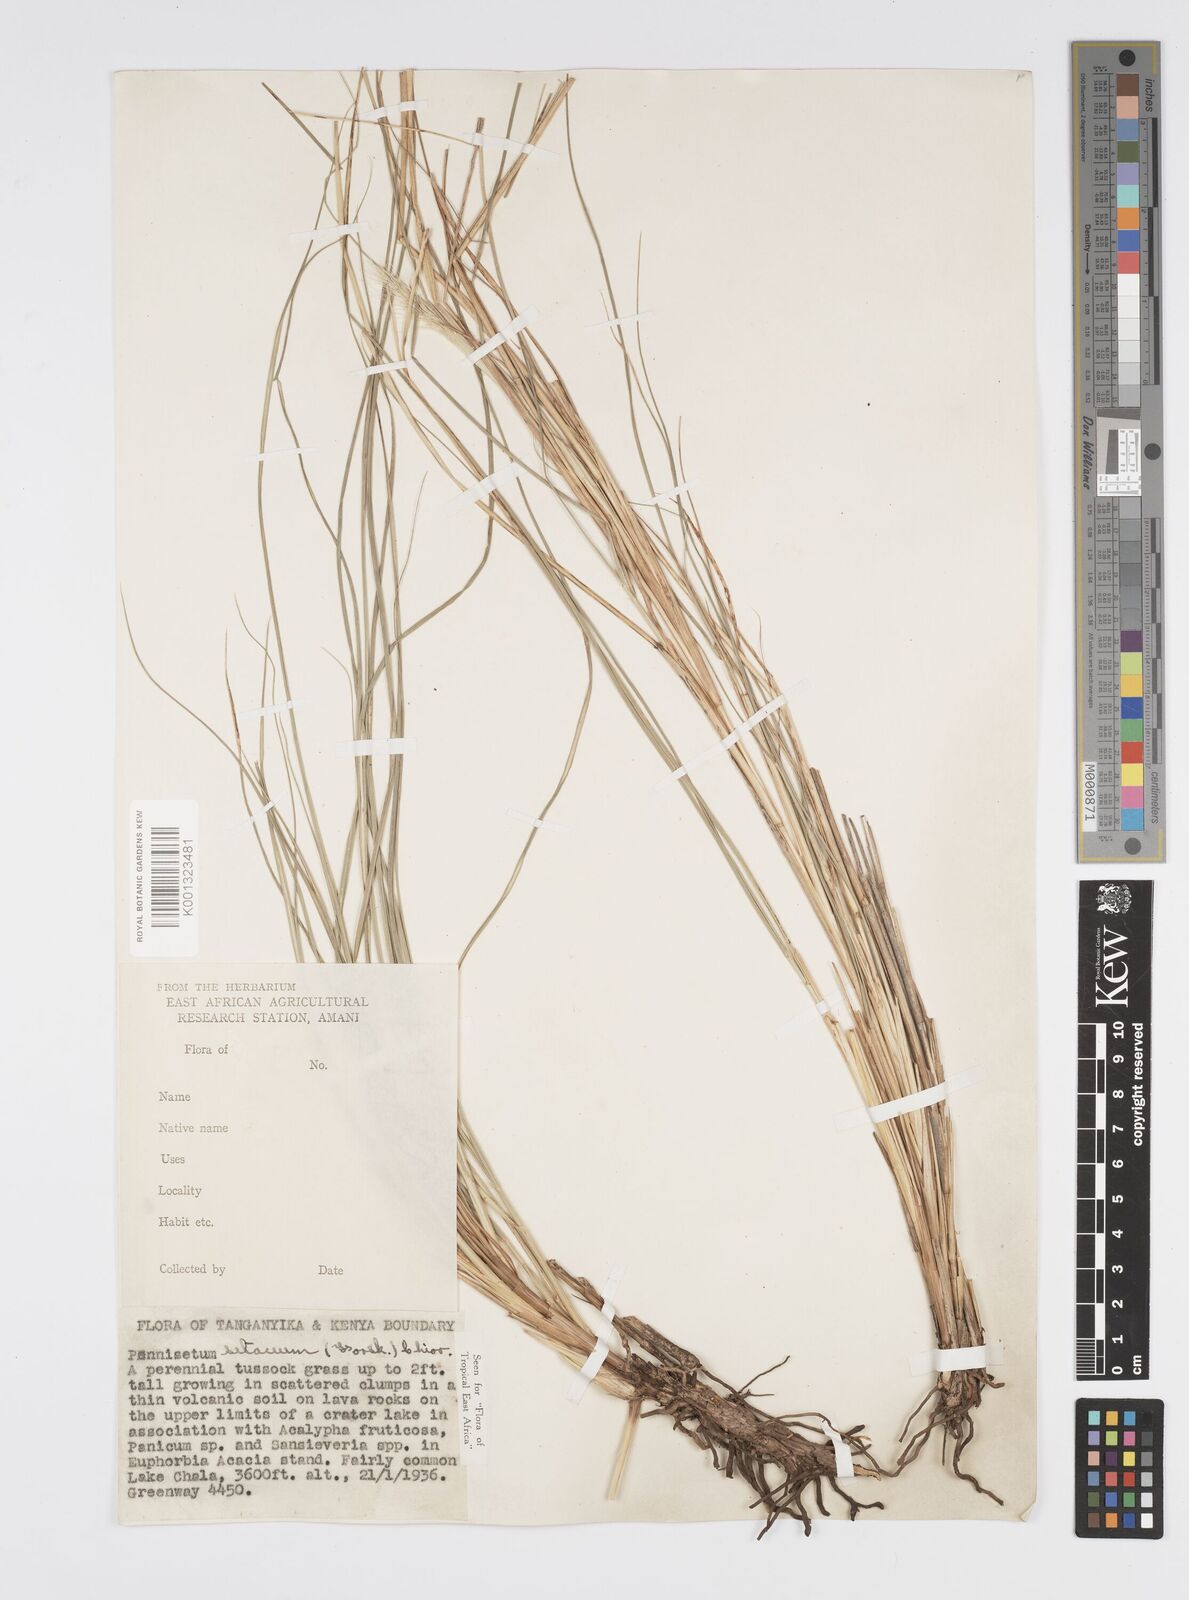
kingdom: Plantae
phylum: Tracheophyta
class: Liliopsida
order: Poales
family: Poaceae
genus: Cenchrus
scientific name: Cenchrus setaceus
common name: Crimson fountaingrass
